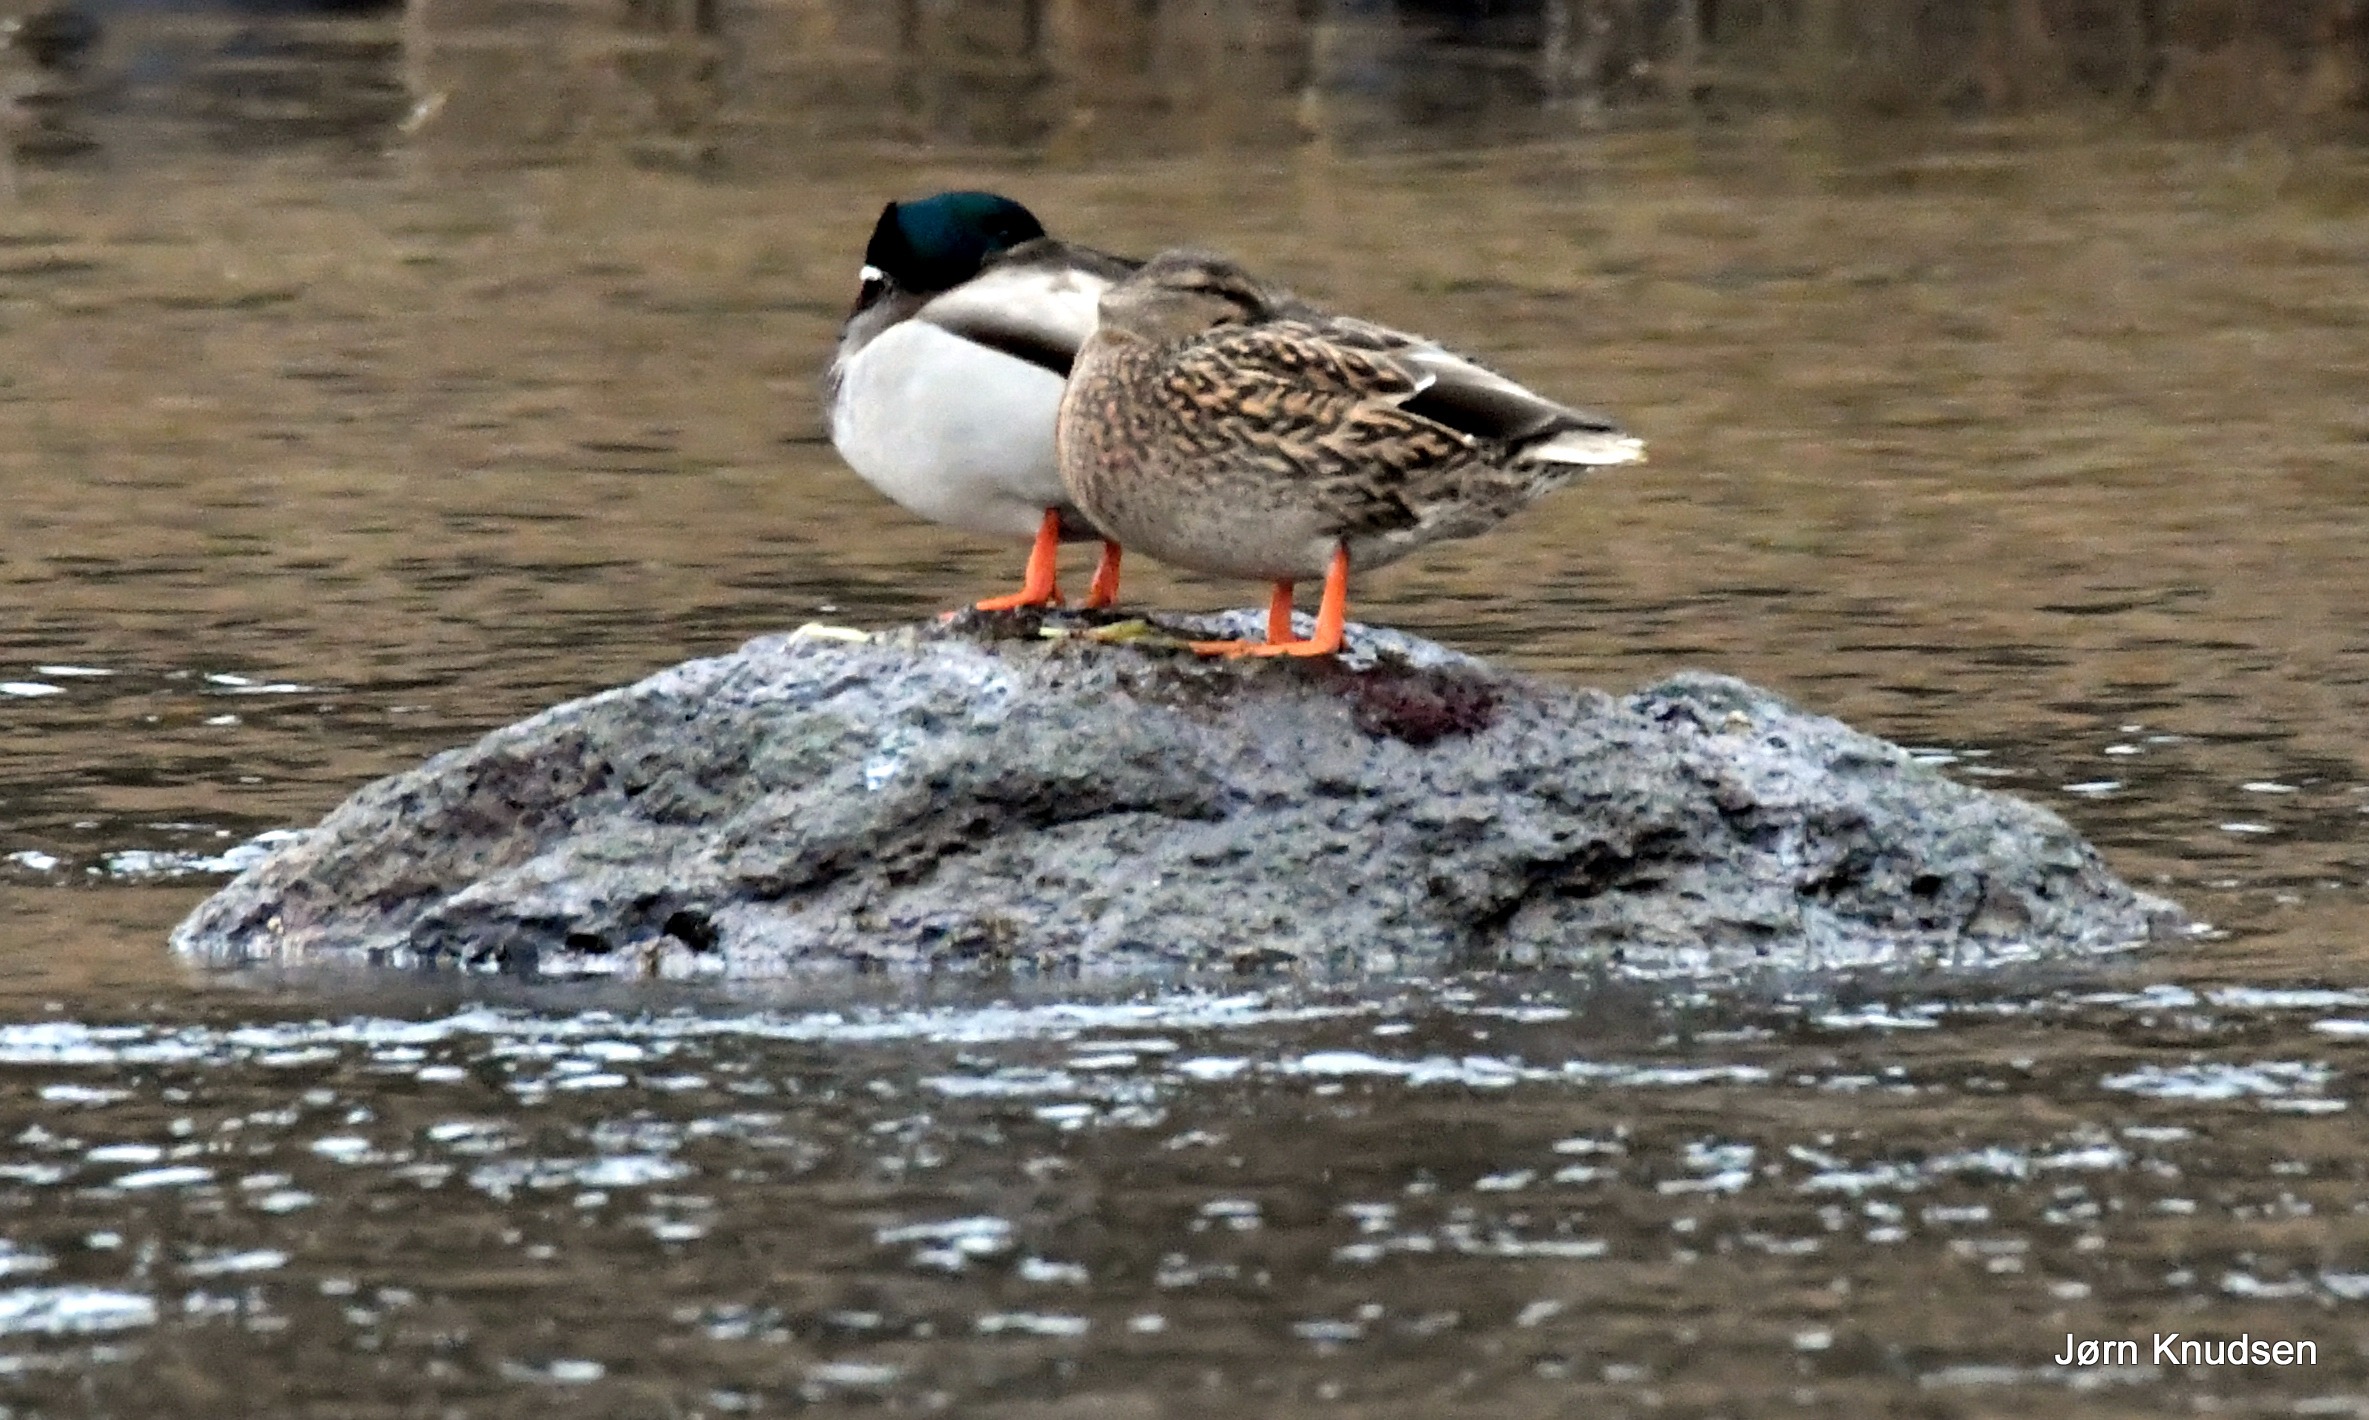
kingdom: Animalia
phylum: Chordata
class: Aves
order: Anseriformes
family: Anatidae
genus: Anas
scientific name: Anas platyrhynchos
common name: Gråand
